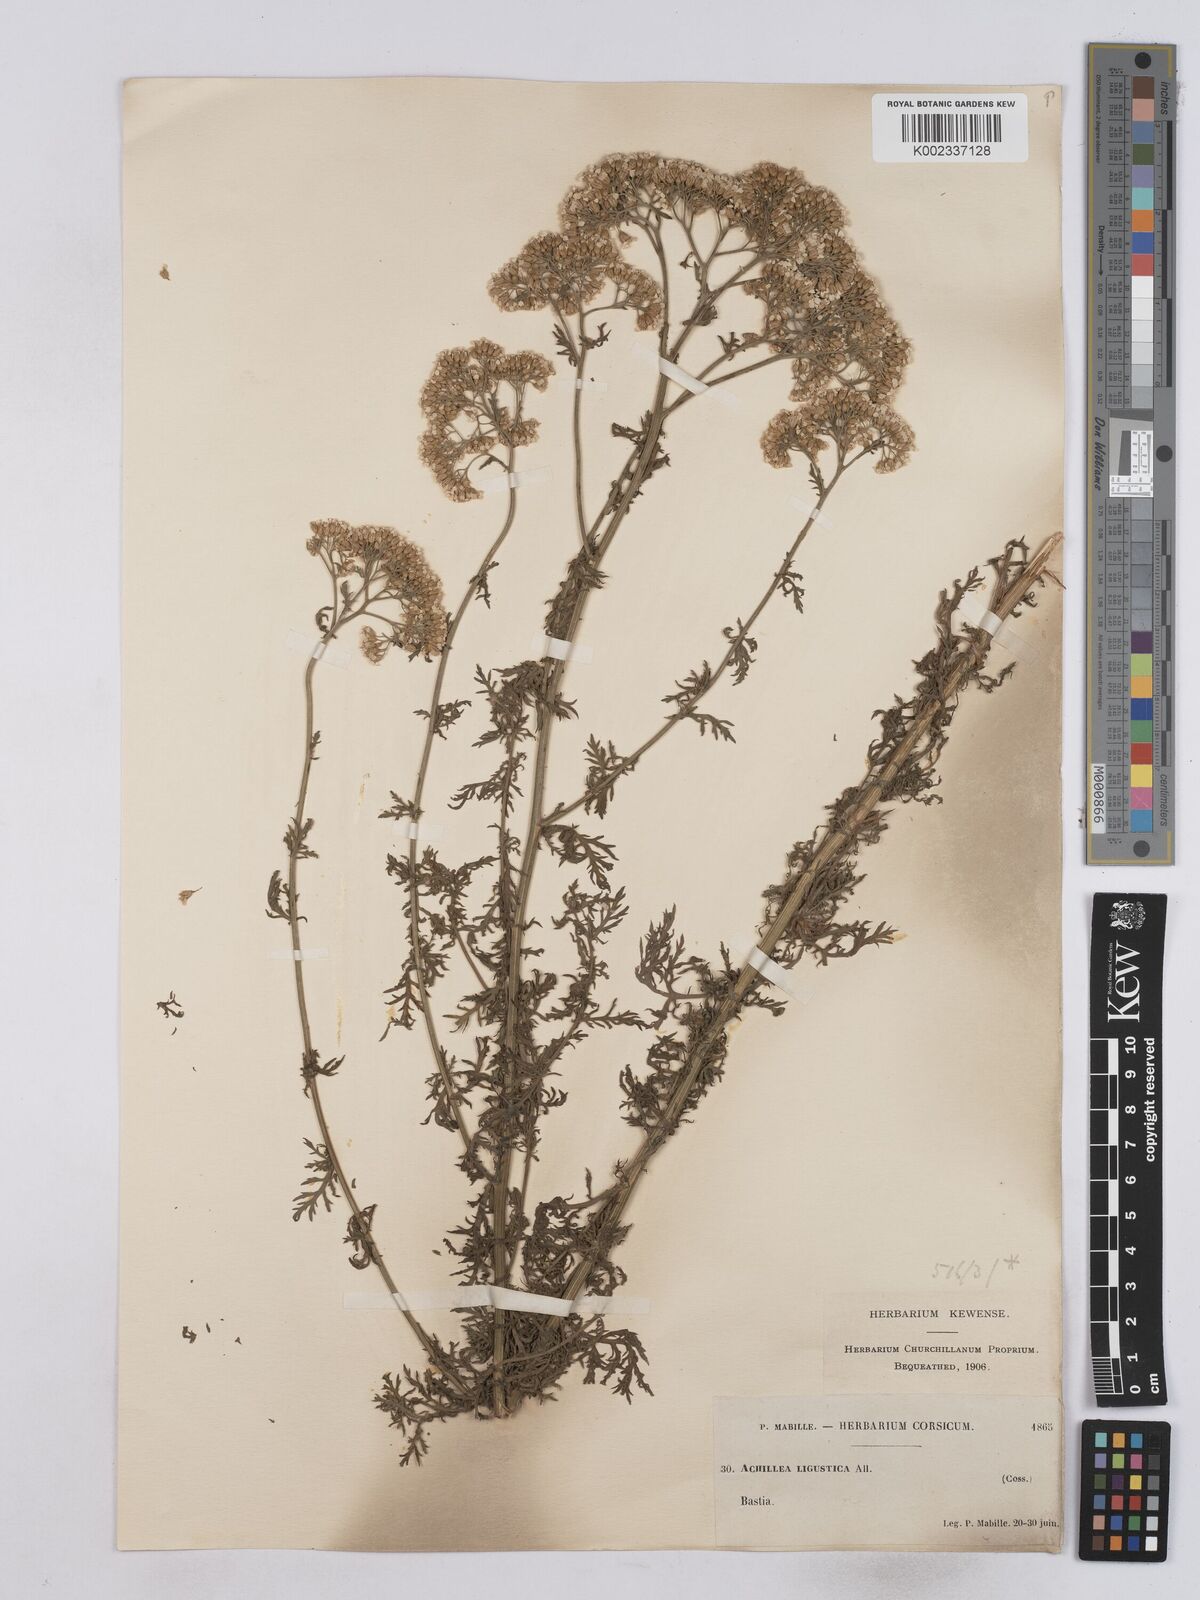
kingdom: Plantae
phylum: Tracheophyta
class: Magnoliopsida
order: Asterales
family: Asteraceae
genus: Achillea
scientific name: Achillea ligustica
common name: Southern yarrow
